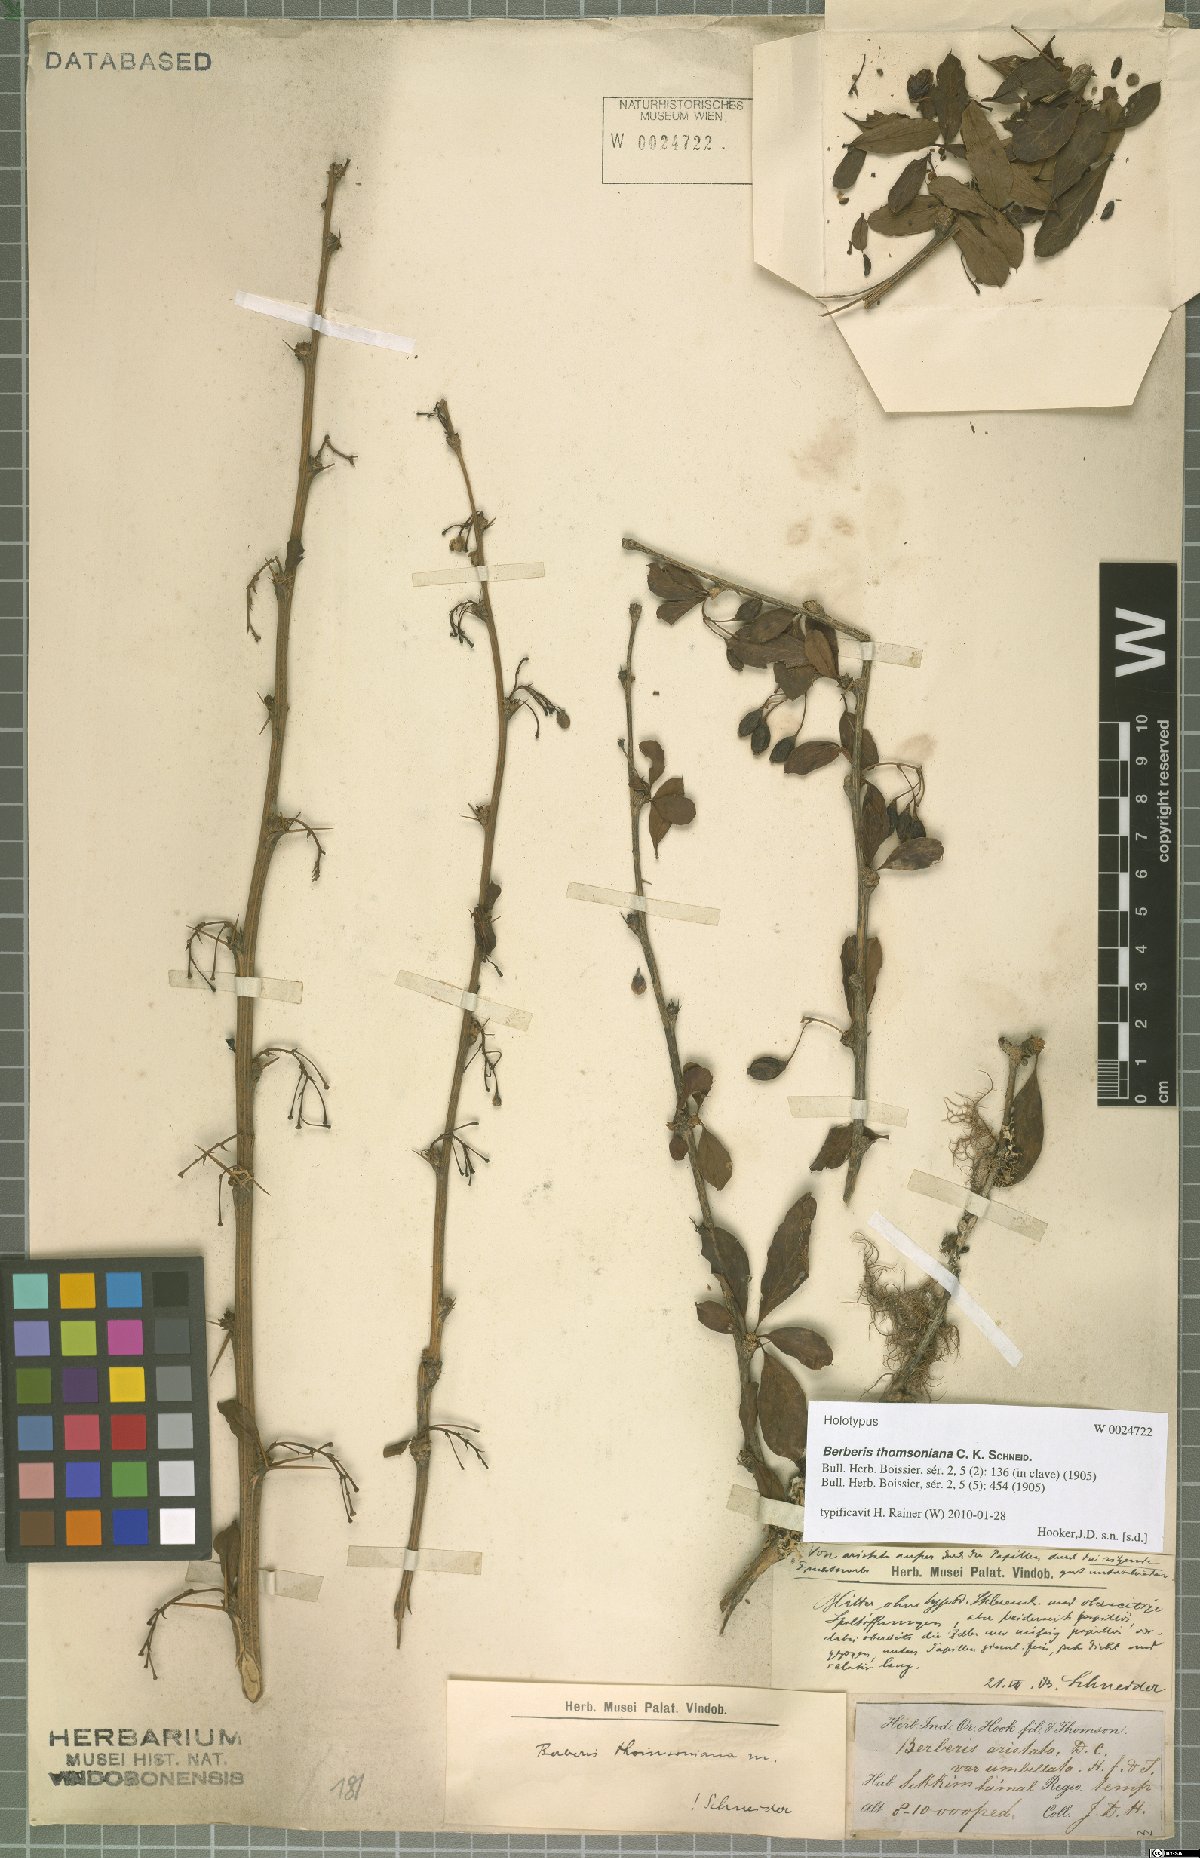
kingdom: Plantae
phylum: Tracheophyta
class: Magnoliopsida
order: Ranunculales
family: Berberidaceae
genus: Berberis
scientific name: Berberis thomsoniana
